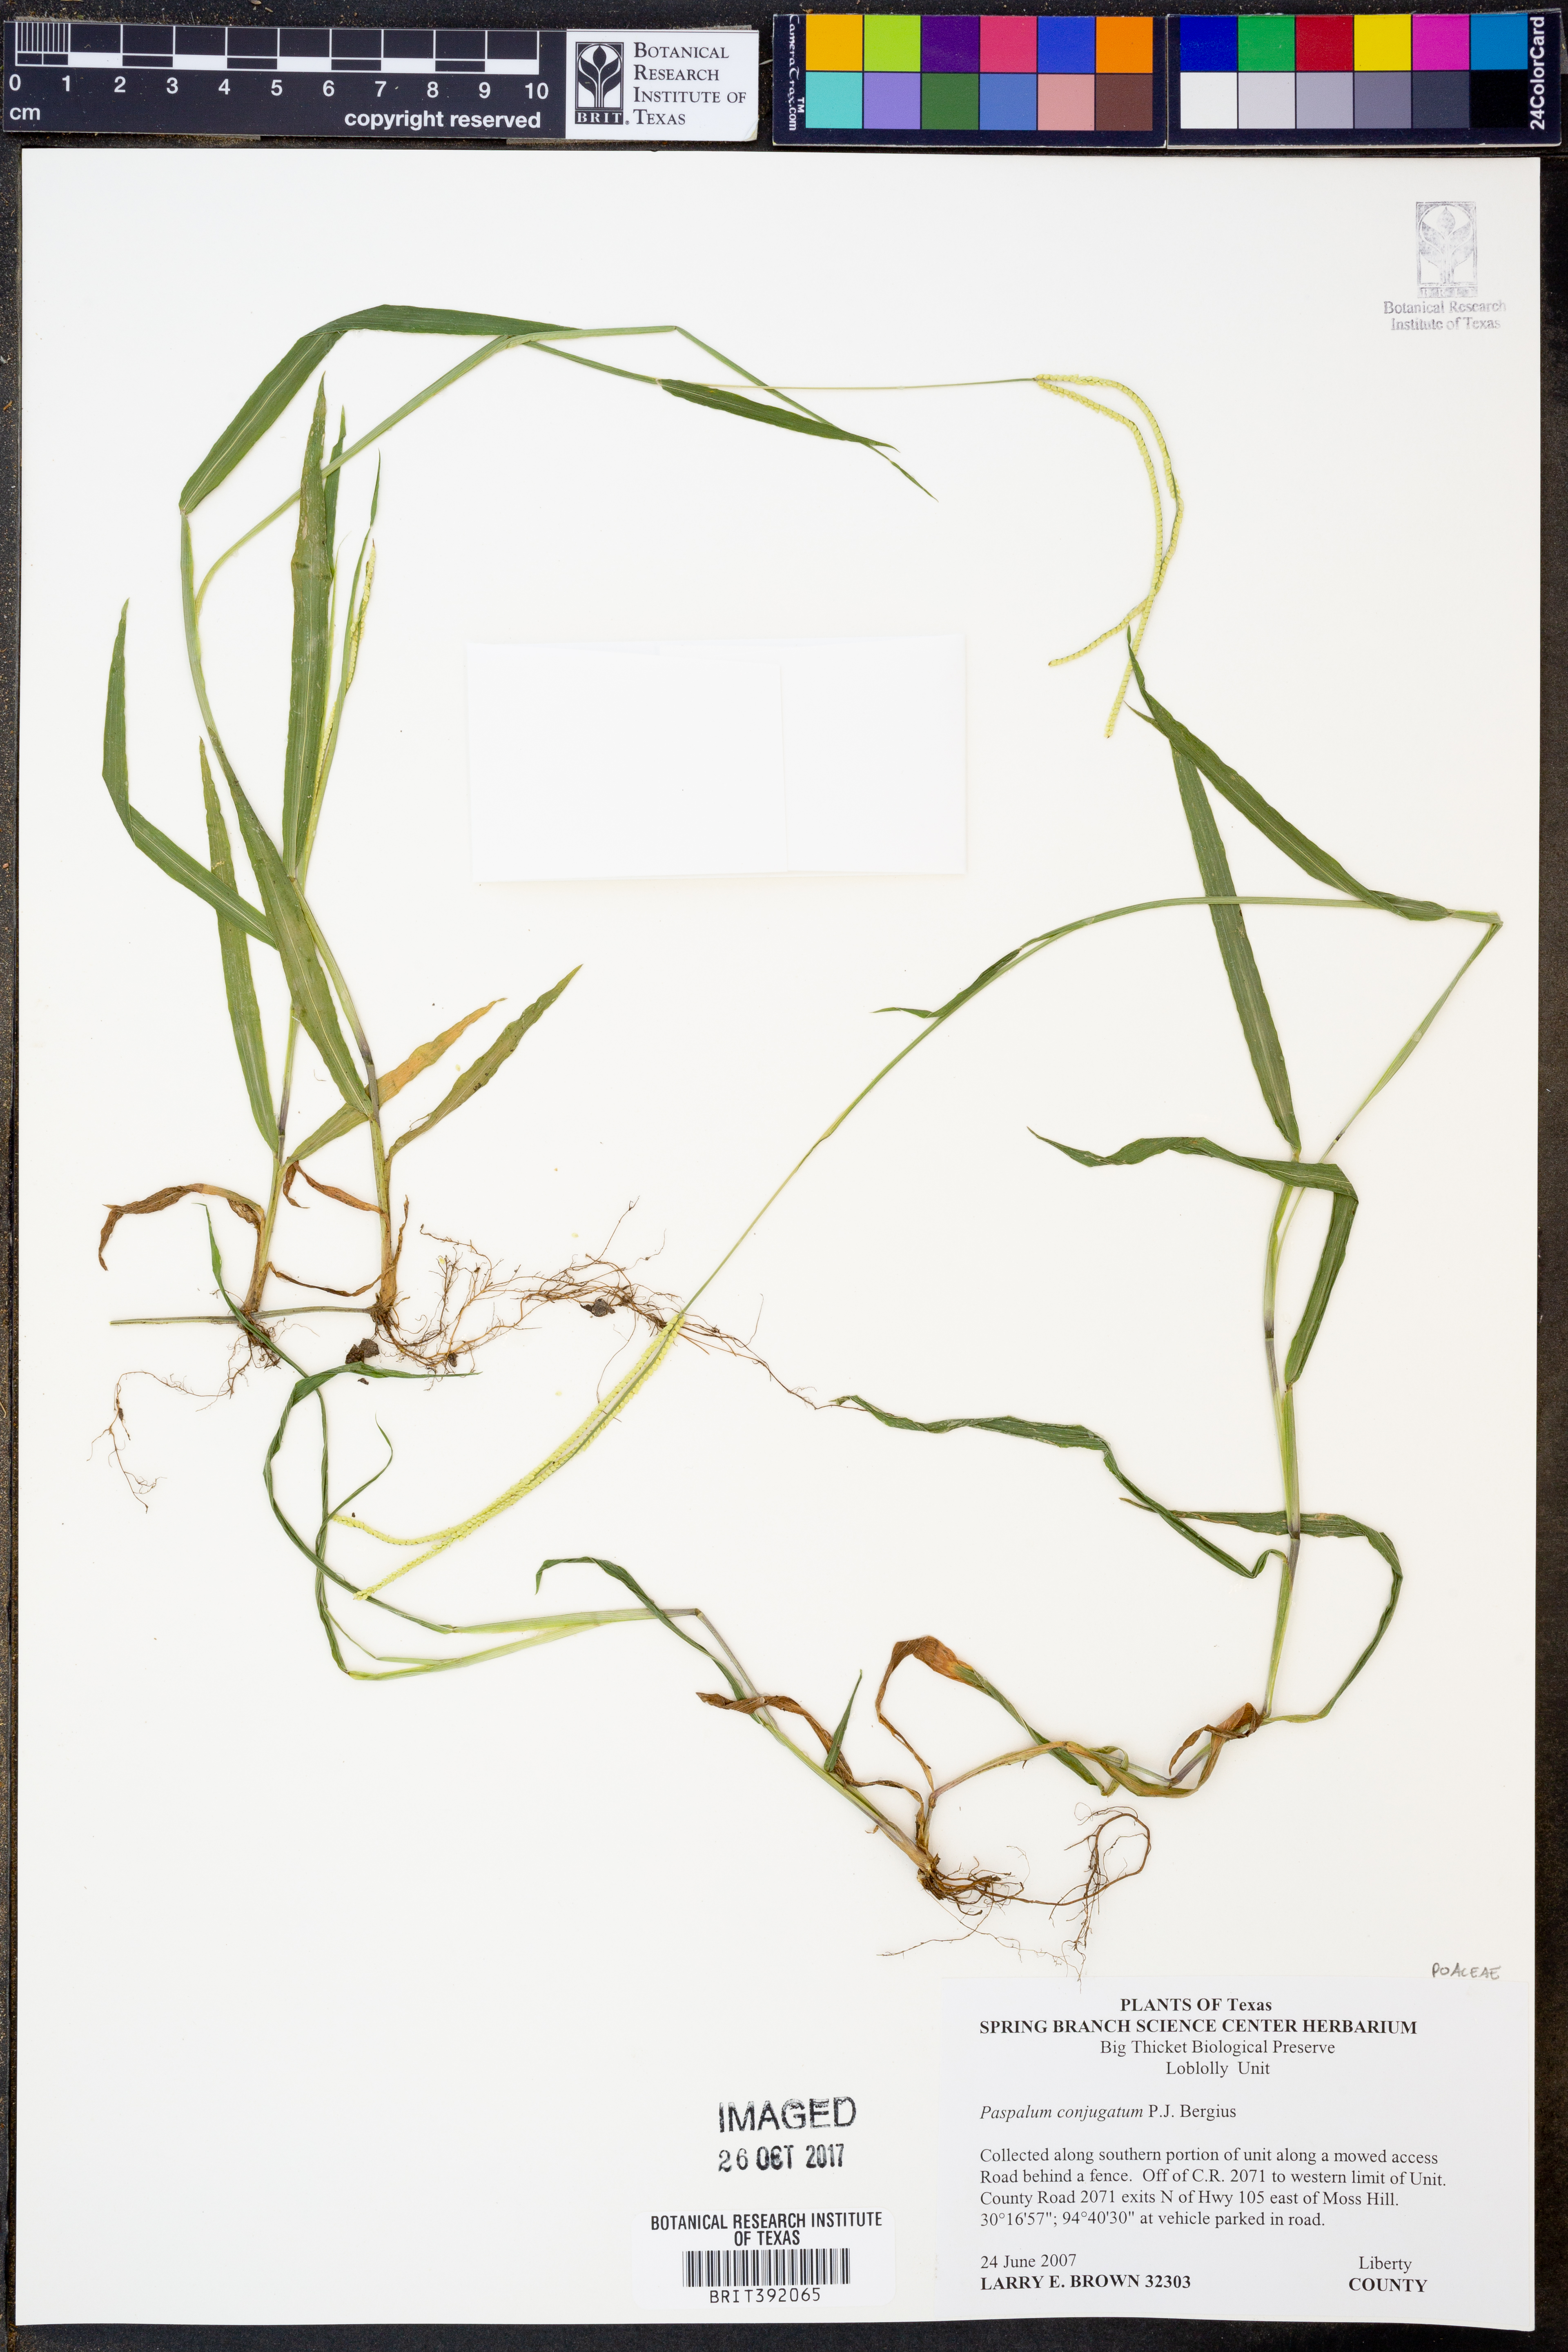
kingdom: Plantae
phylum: Tracheophyta
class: Liliopsida
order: Poales
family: Poaceae
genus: Paspalum
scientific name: Paspalum conjugatum
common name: Hilograss
